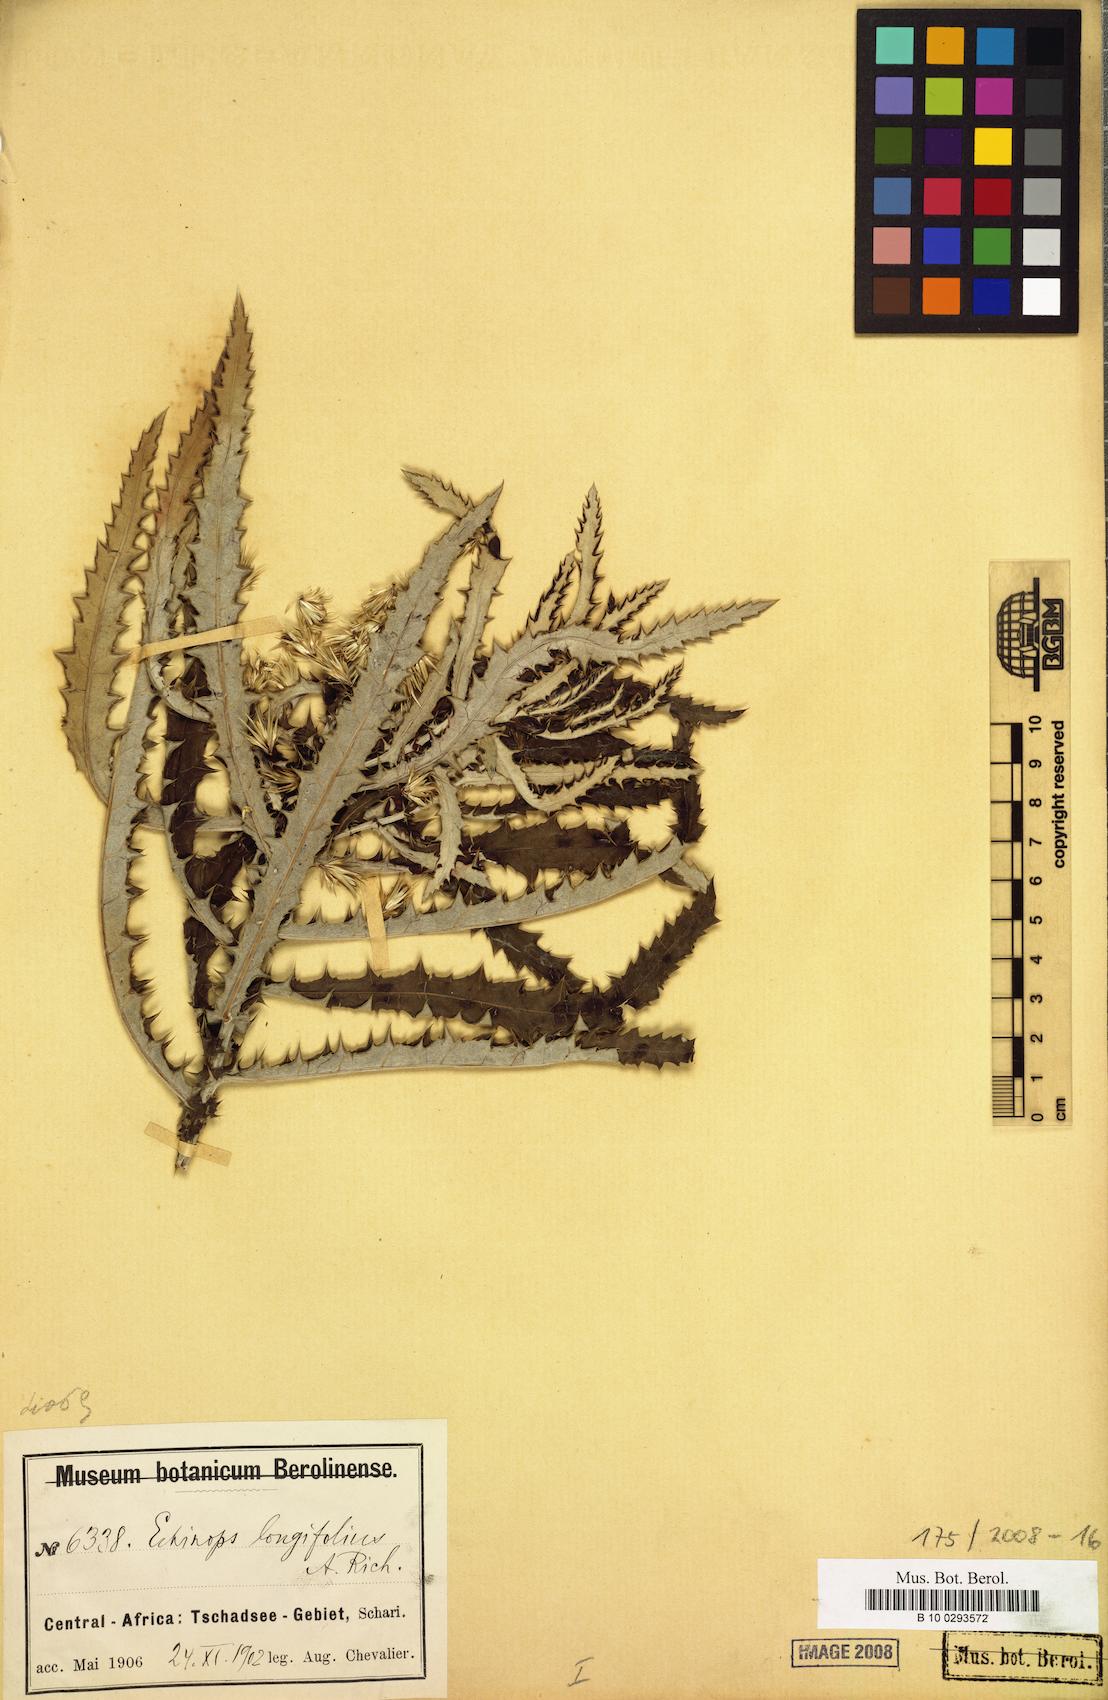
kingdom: Plantae
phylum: Tracheophyta
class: Magnoliopsida
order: Asterales
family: Asteraceae
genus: Echinops
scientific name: Echinops longifolius
